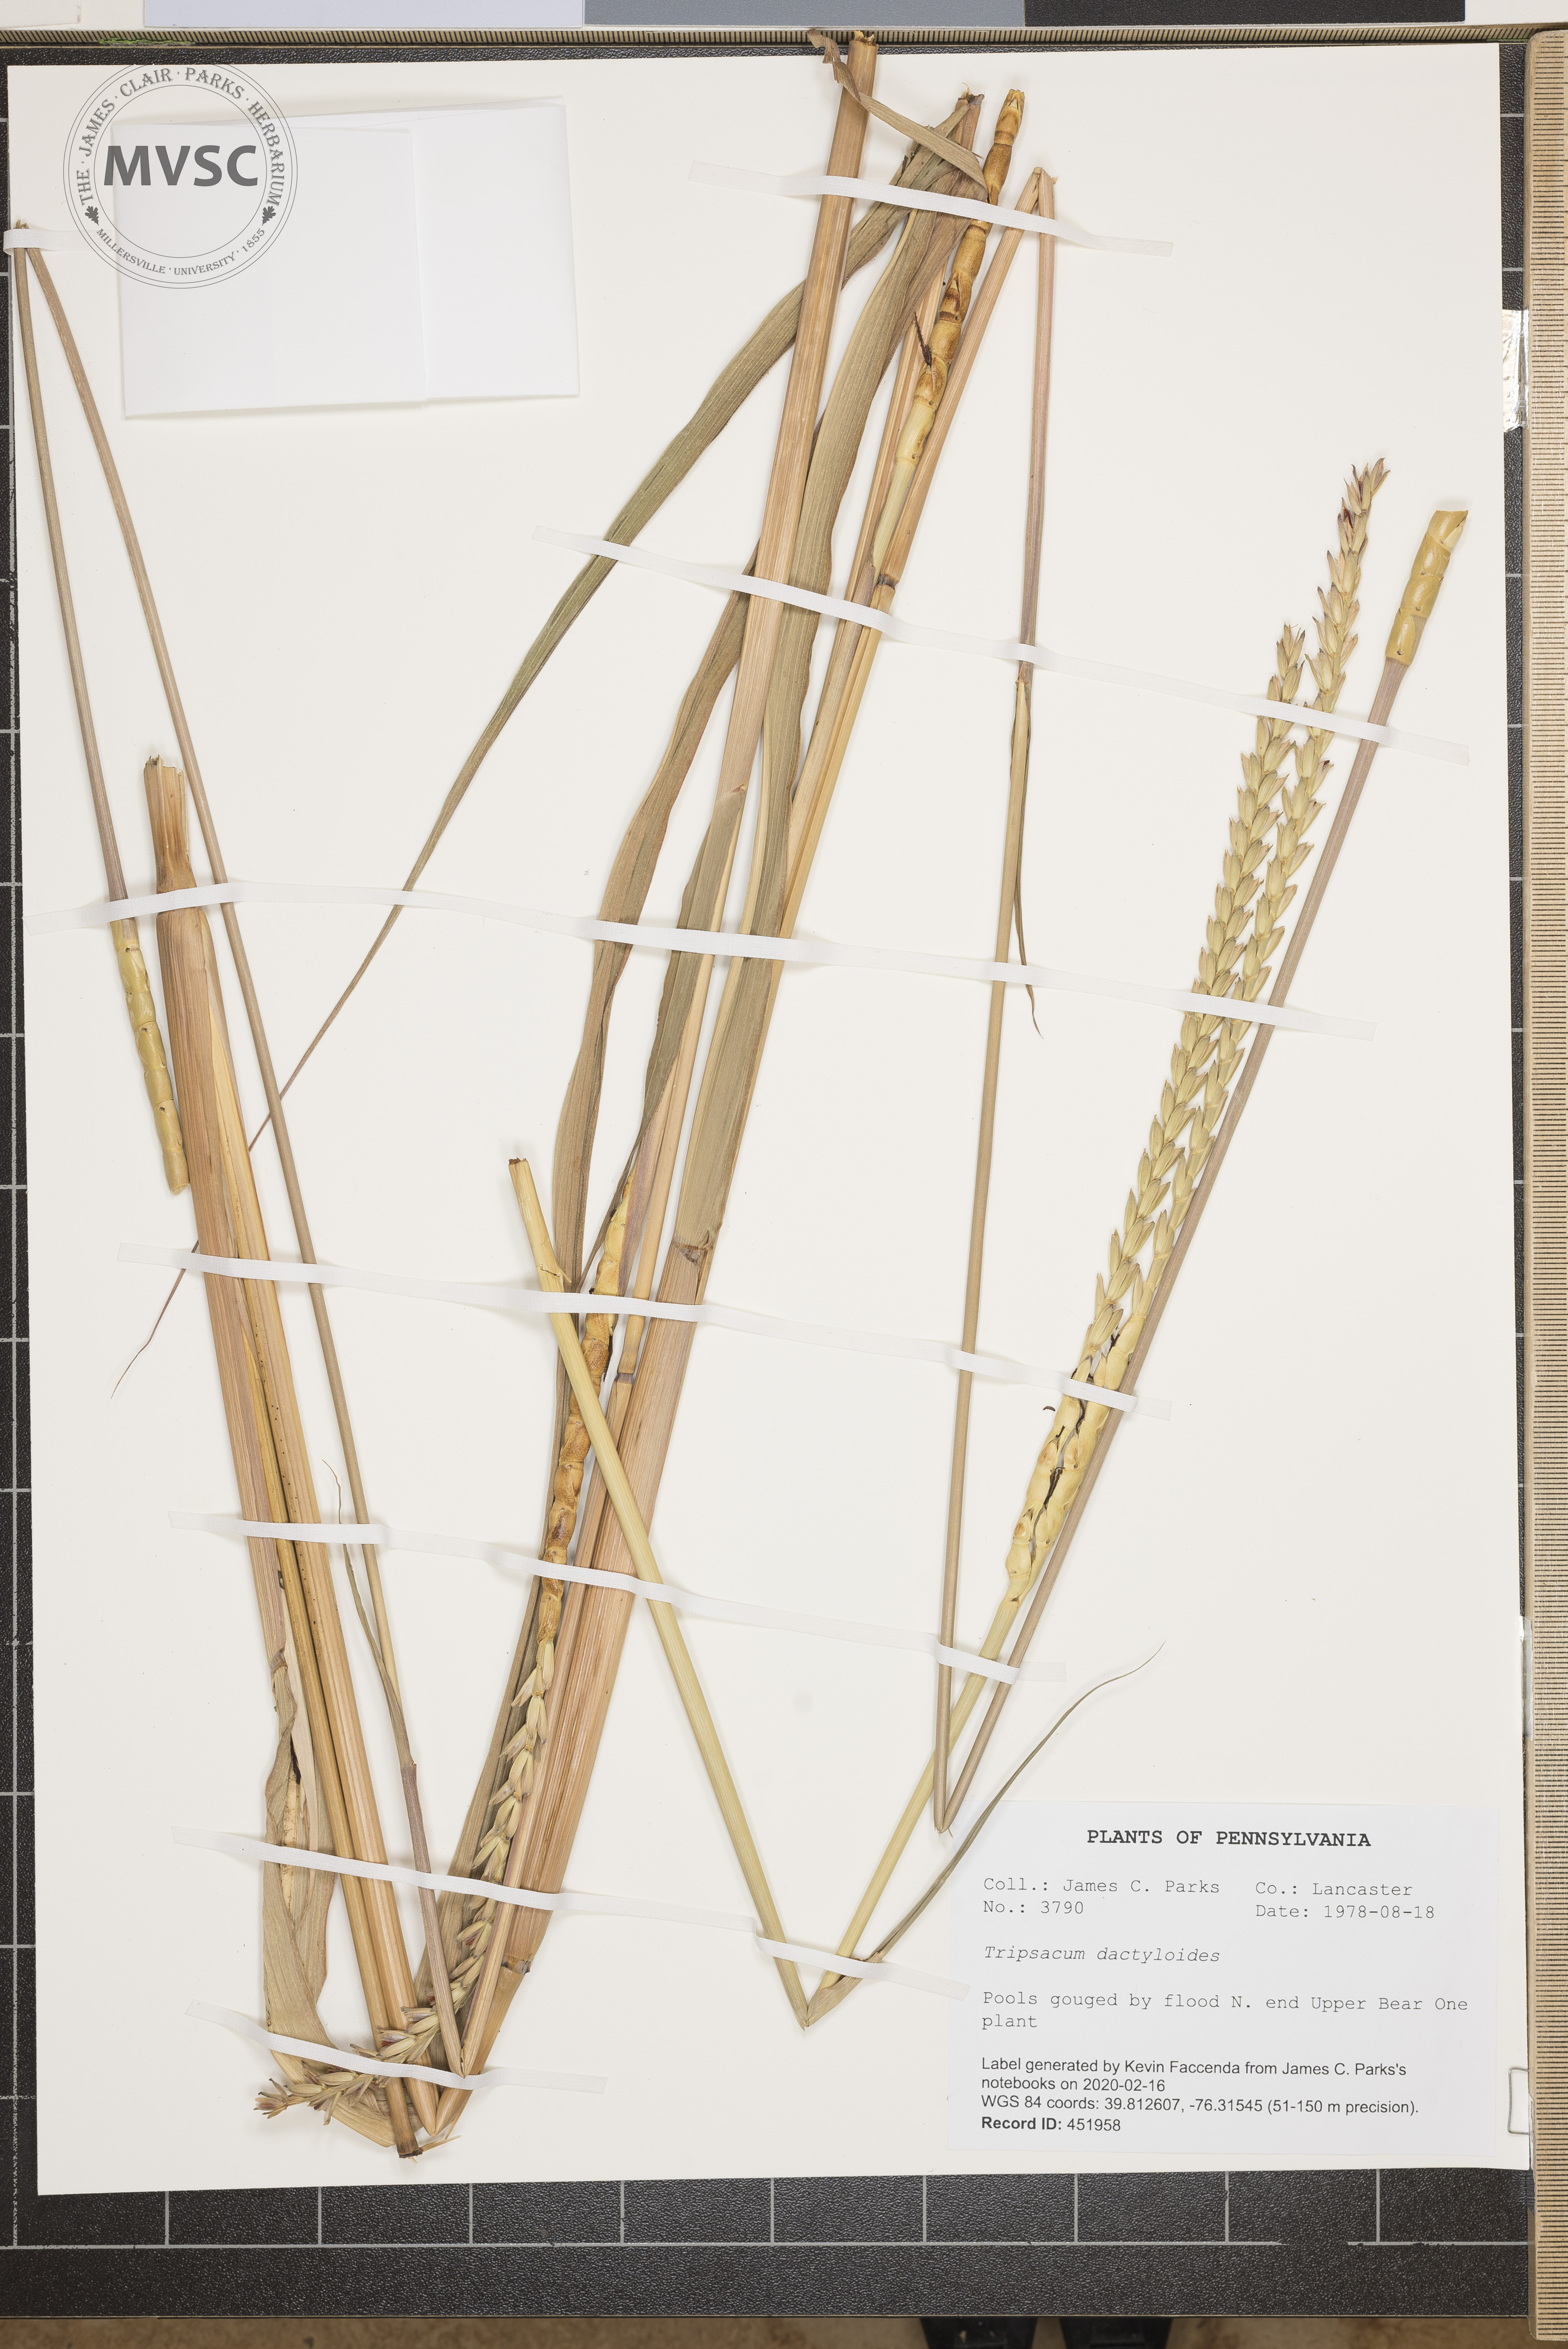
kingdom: Plantae
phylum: Tracheophyta
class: Liliopsida
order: Poales
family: Poaceae
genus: Tripsacum
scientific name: Tripsacum dactyloides
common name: Buffalo-grass
